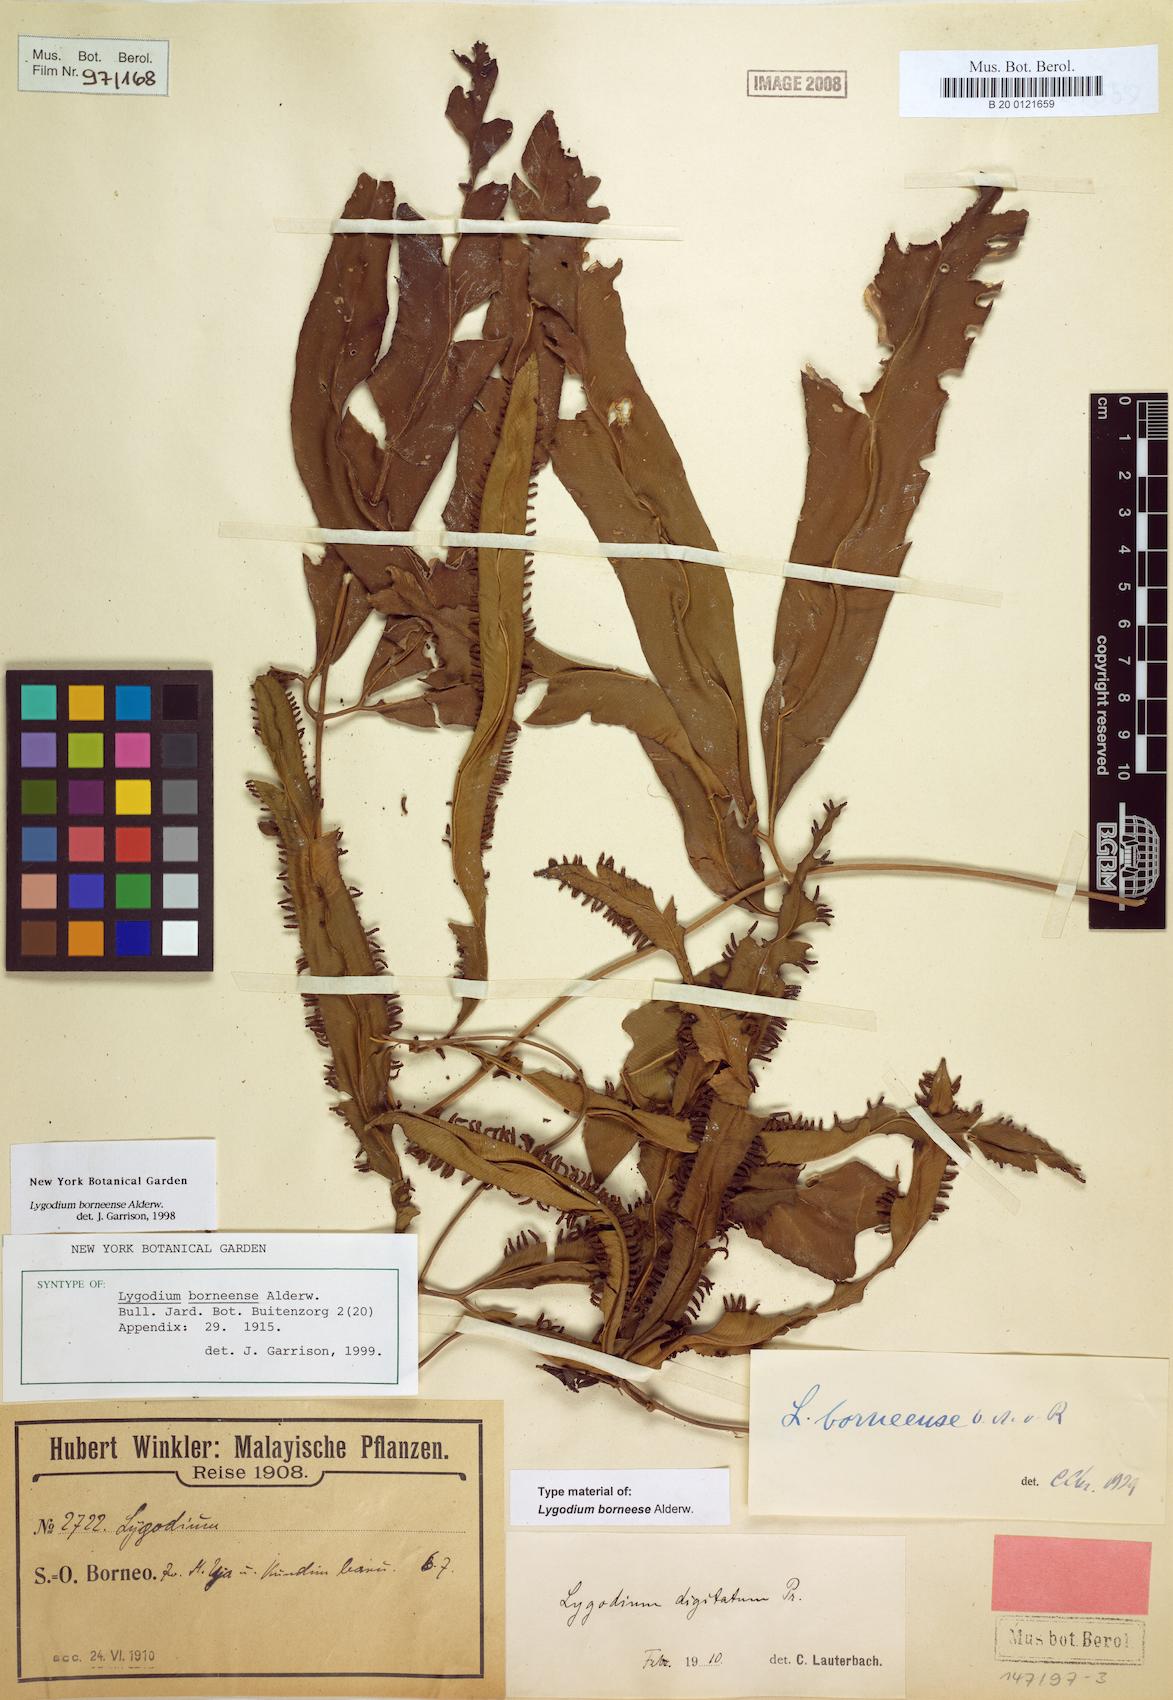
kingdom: Plantae
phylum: Tracheophyta
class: Polypodiopsida
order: Schizaeales
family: Lygodiaceae
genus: Lygodium
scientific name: Lygodium borneense
